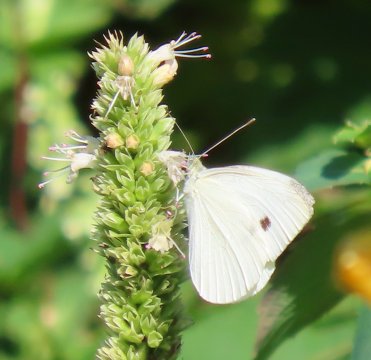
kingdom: Animalia
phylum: Arthropoda
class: Insecta
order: Lepidoptera
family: Pieridae
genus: Pieris
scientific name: Pieris rapae
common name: Cabbage White
